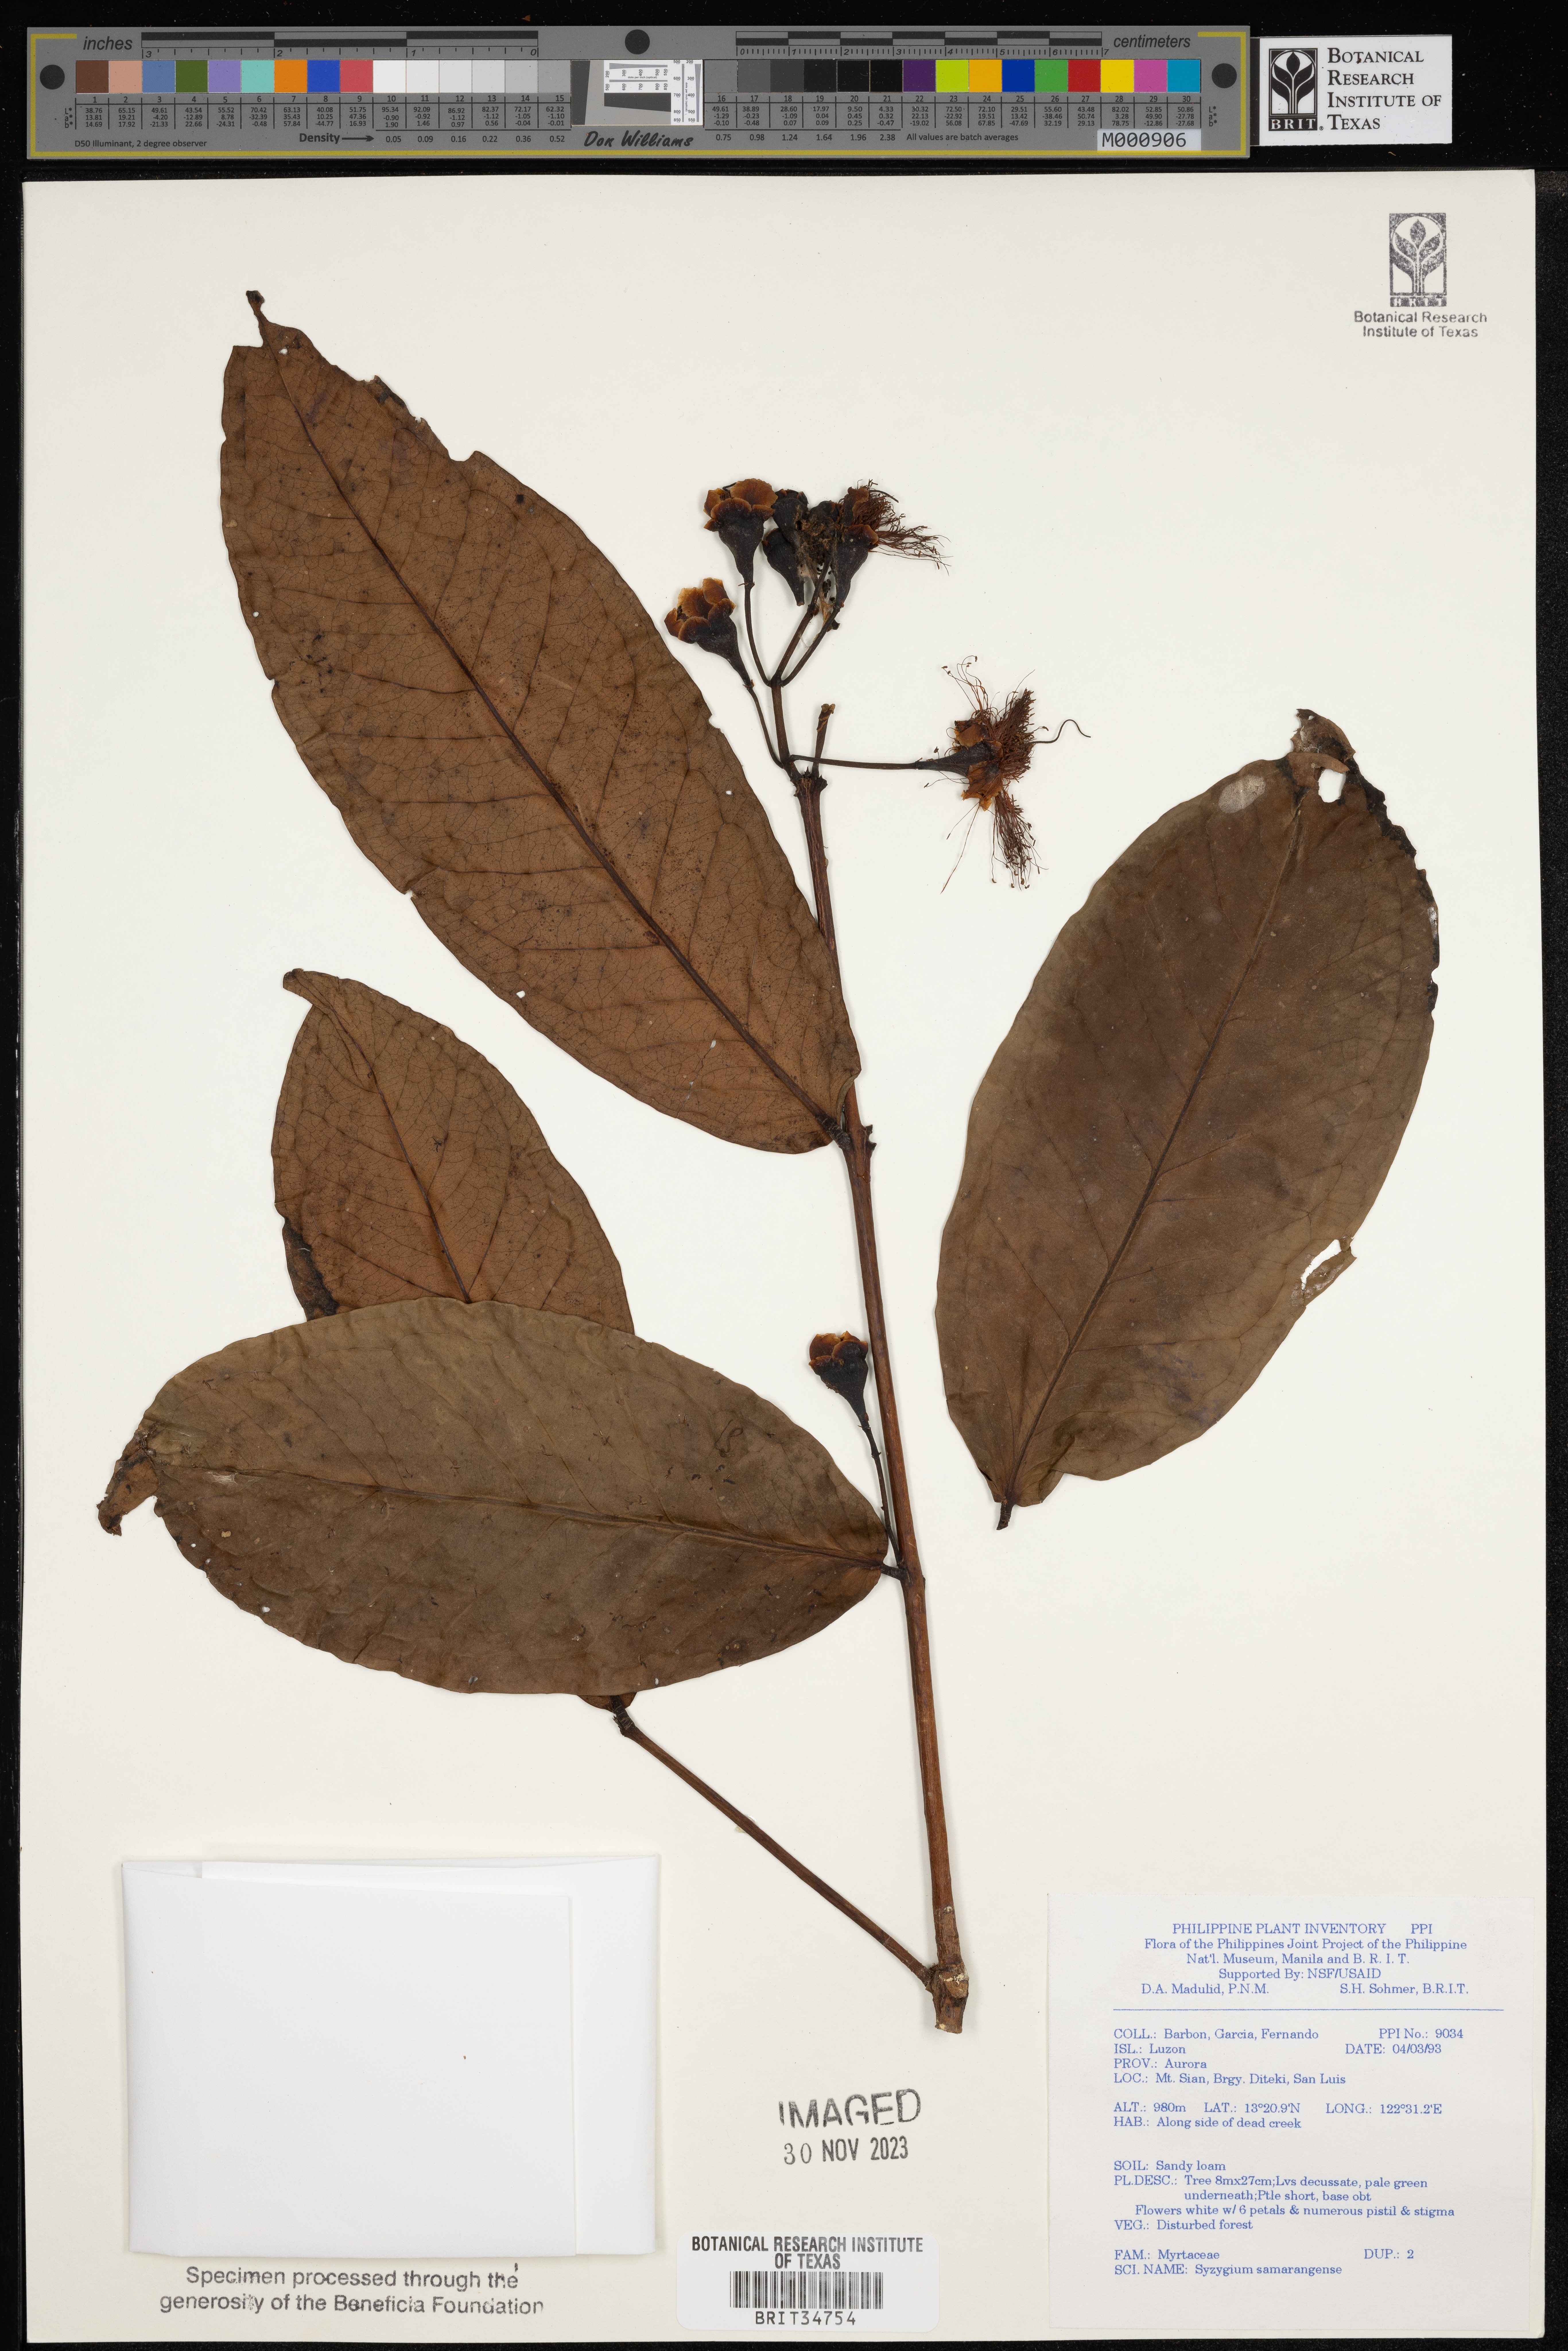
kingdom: Plantae
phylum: Tracheophyta
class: Magnoliopsida
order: Myrtales
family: Myrtaceae
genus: Syzygium
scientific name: Syzygium samarangense
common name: Semarang rose-apple
